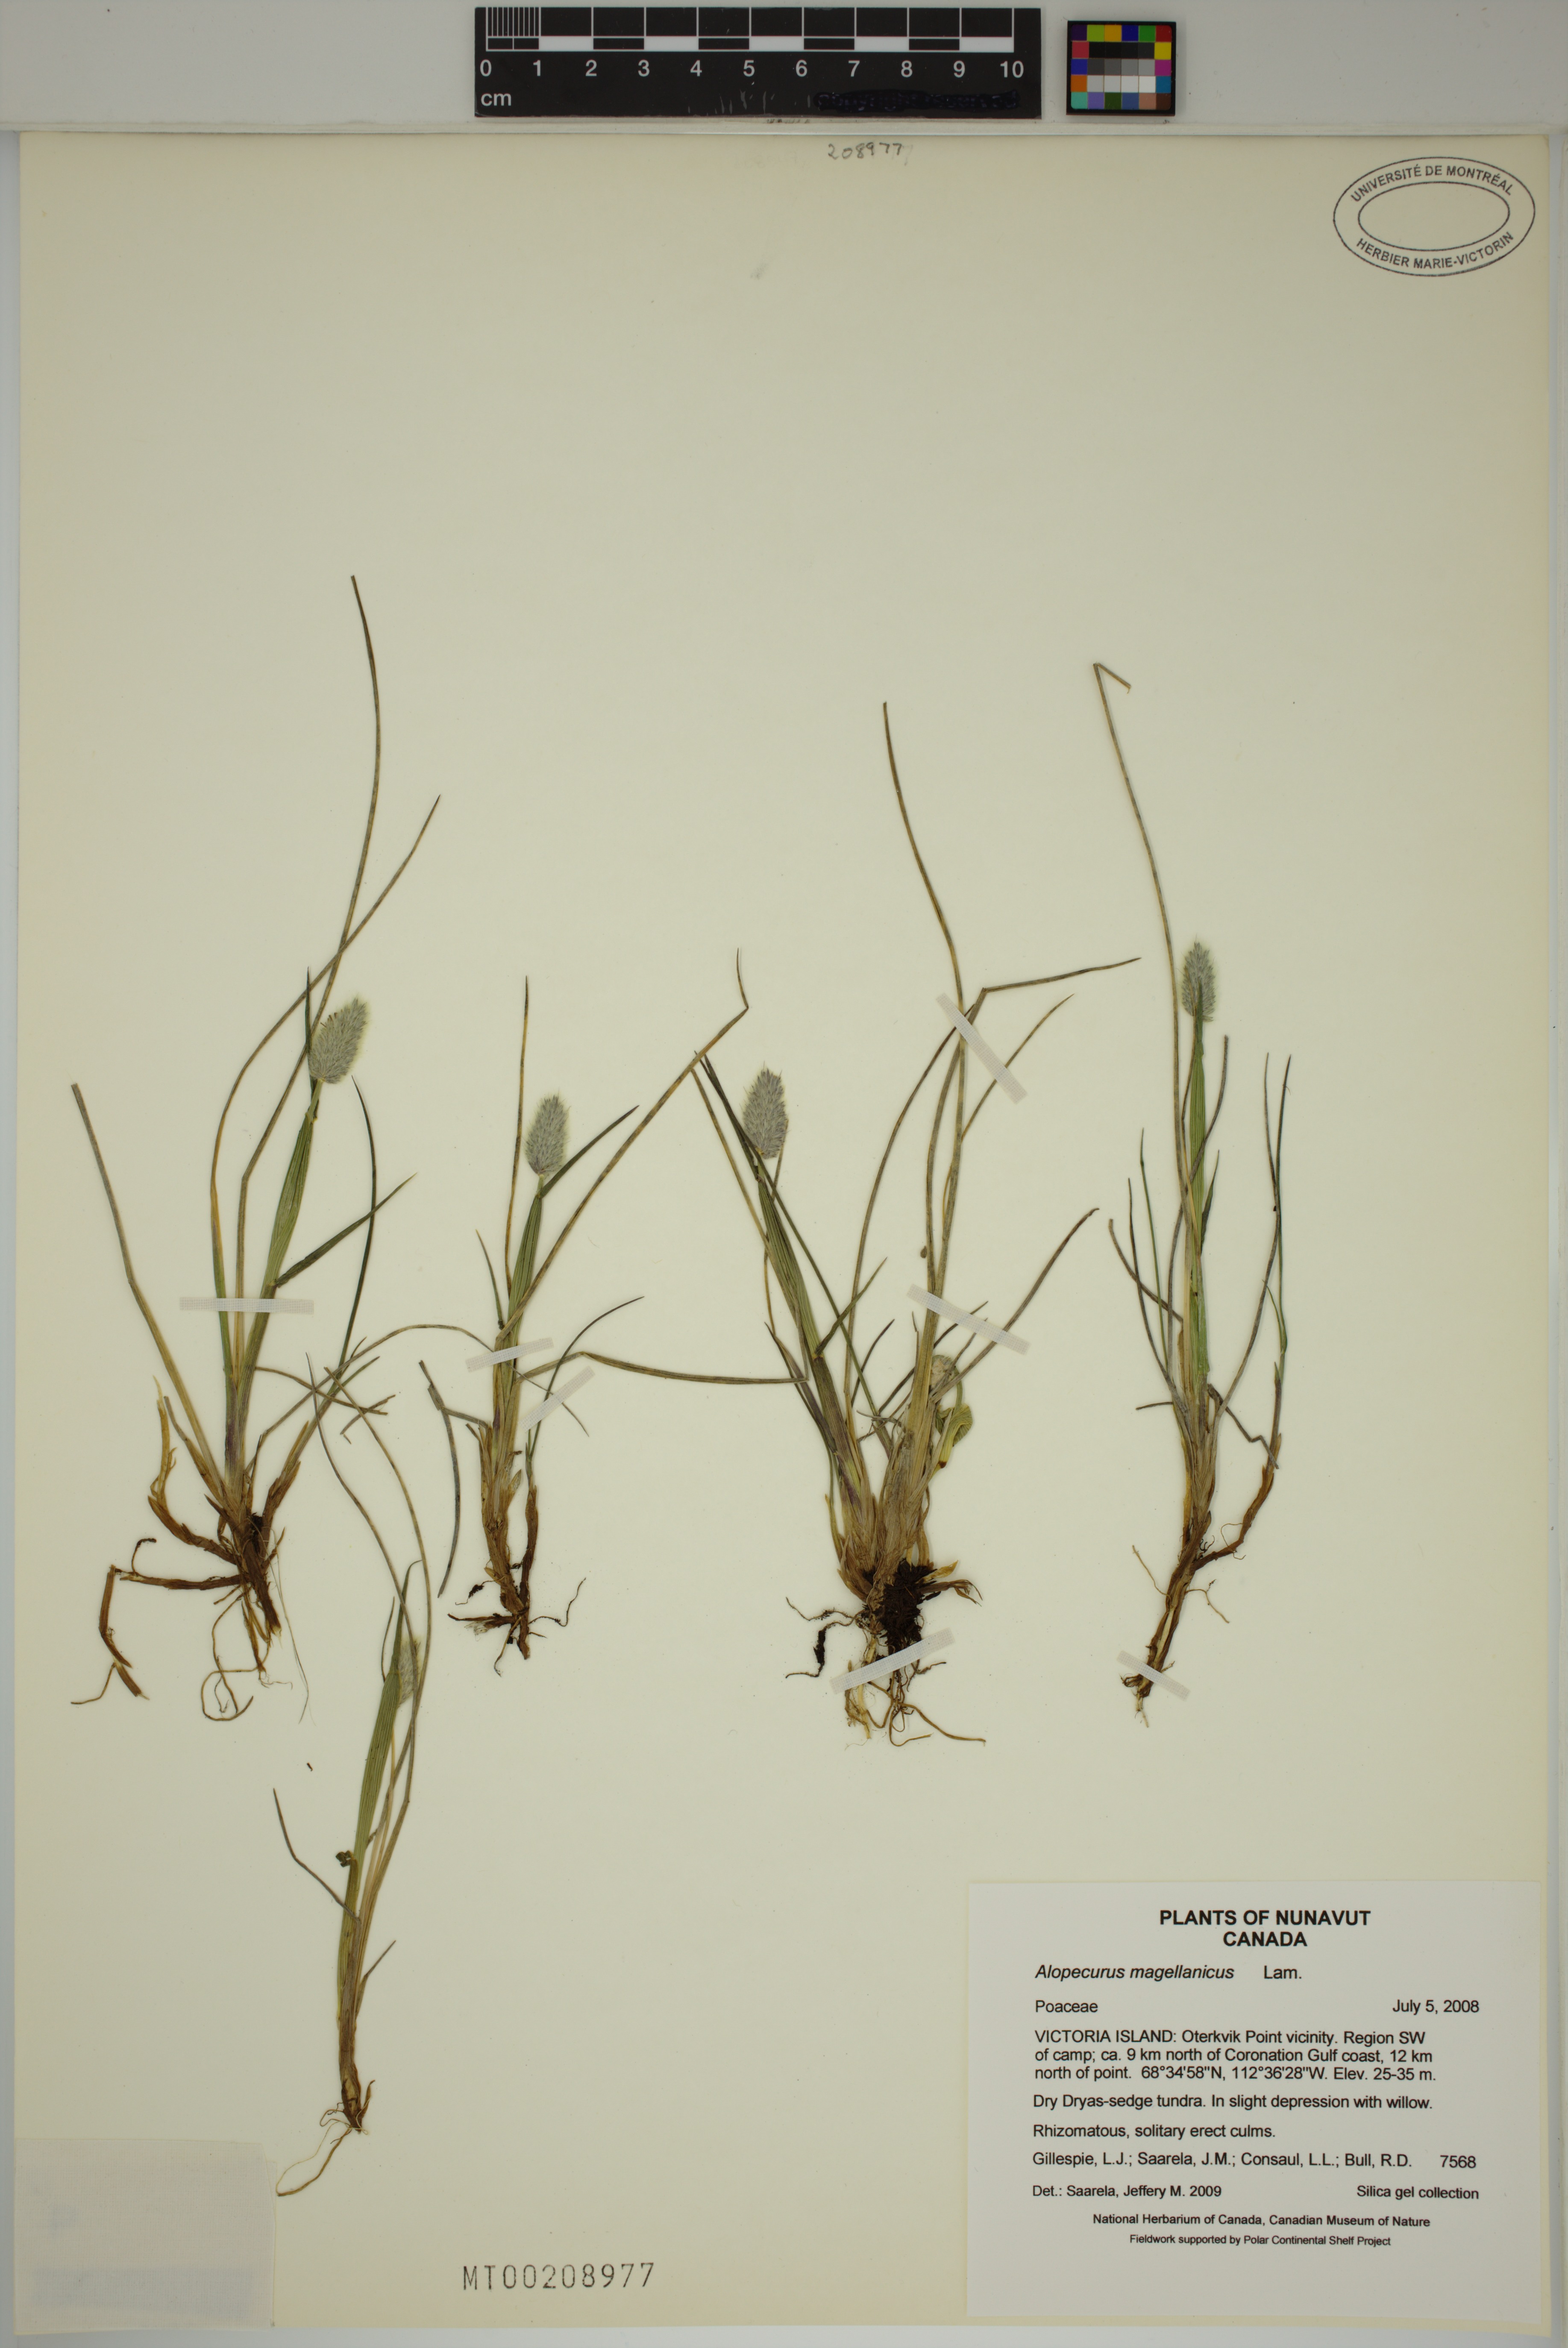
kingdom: Plantae
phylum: Tracheophyta
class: Liliopsida
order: Poales
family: Poaceae
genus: Alopecurus
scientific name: Alopecurus magellanicus
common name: Alpine foxtail
